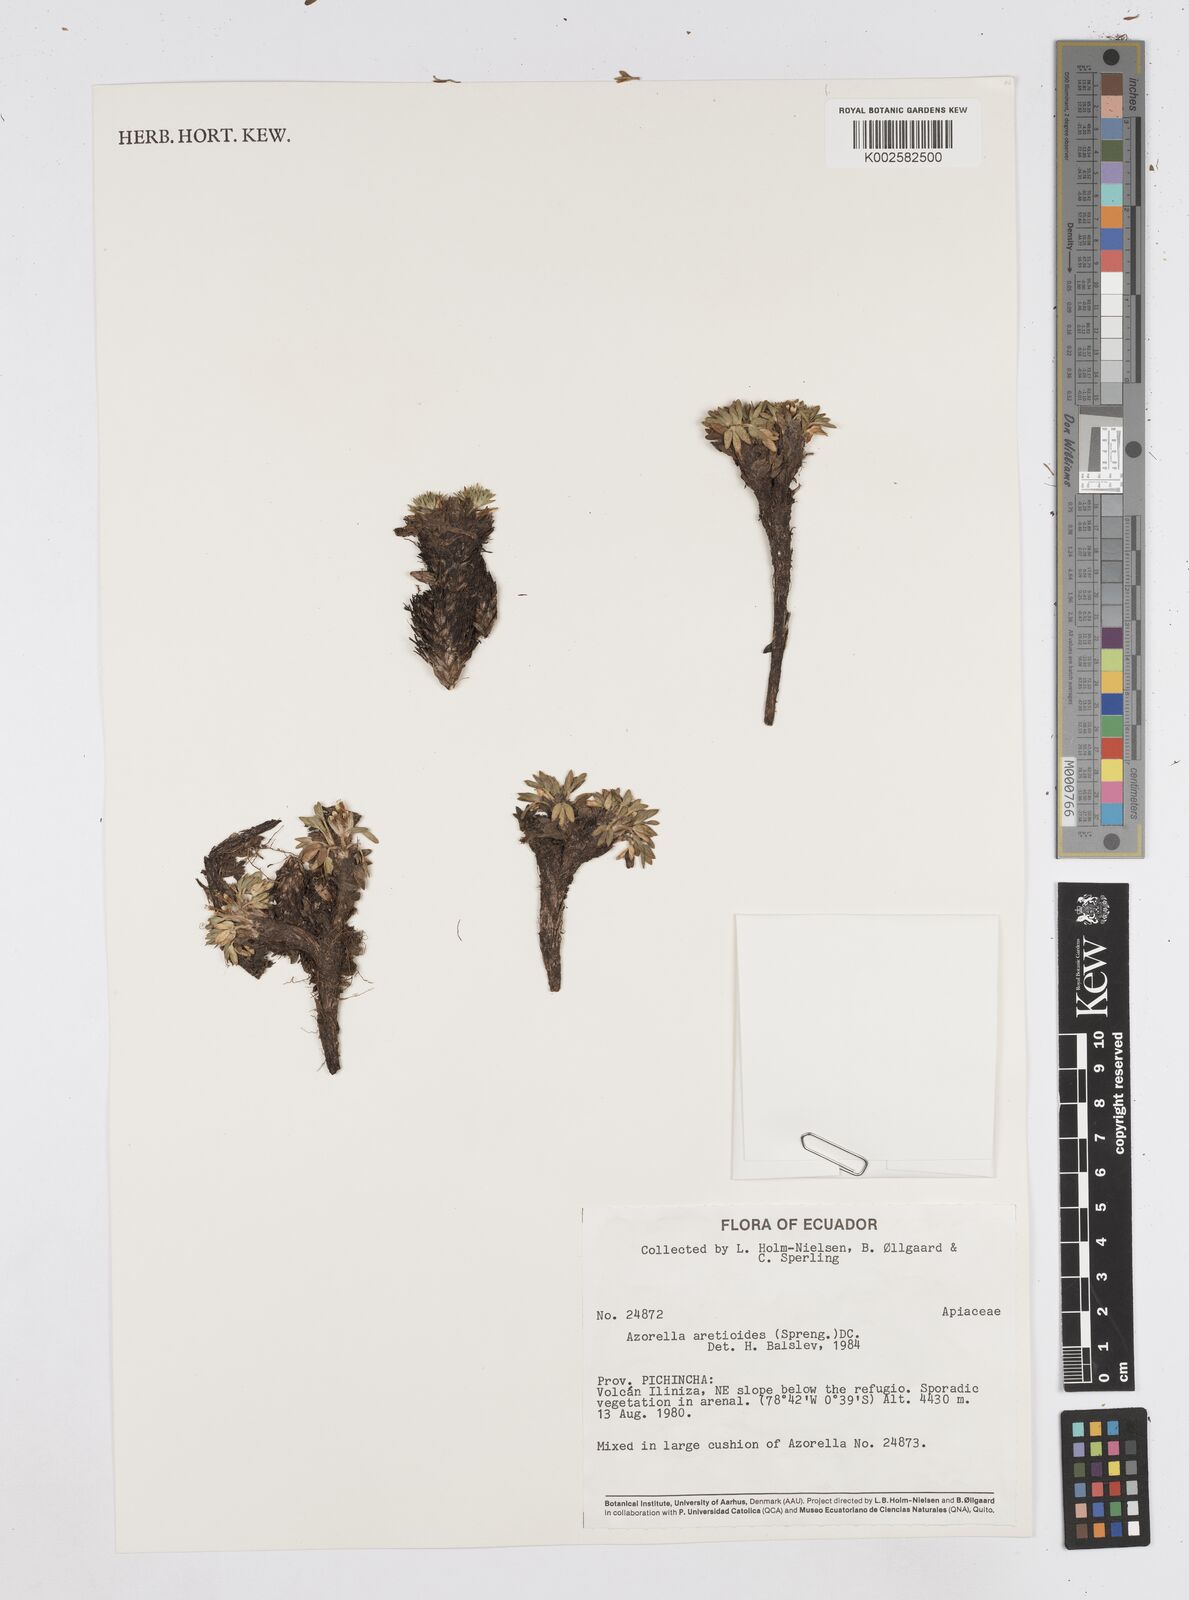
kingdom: Plantae
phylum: Tracheophyta
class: Magnoliopsida
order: Apiales
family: Apiaceae
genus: Azorella
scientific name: Azorella aretioides
